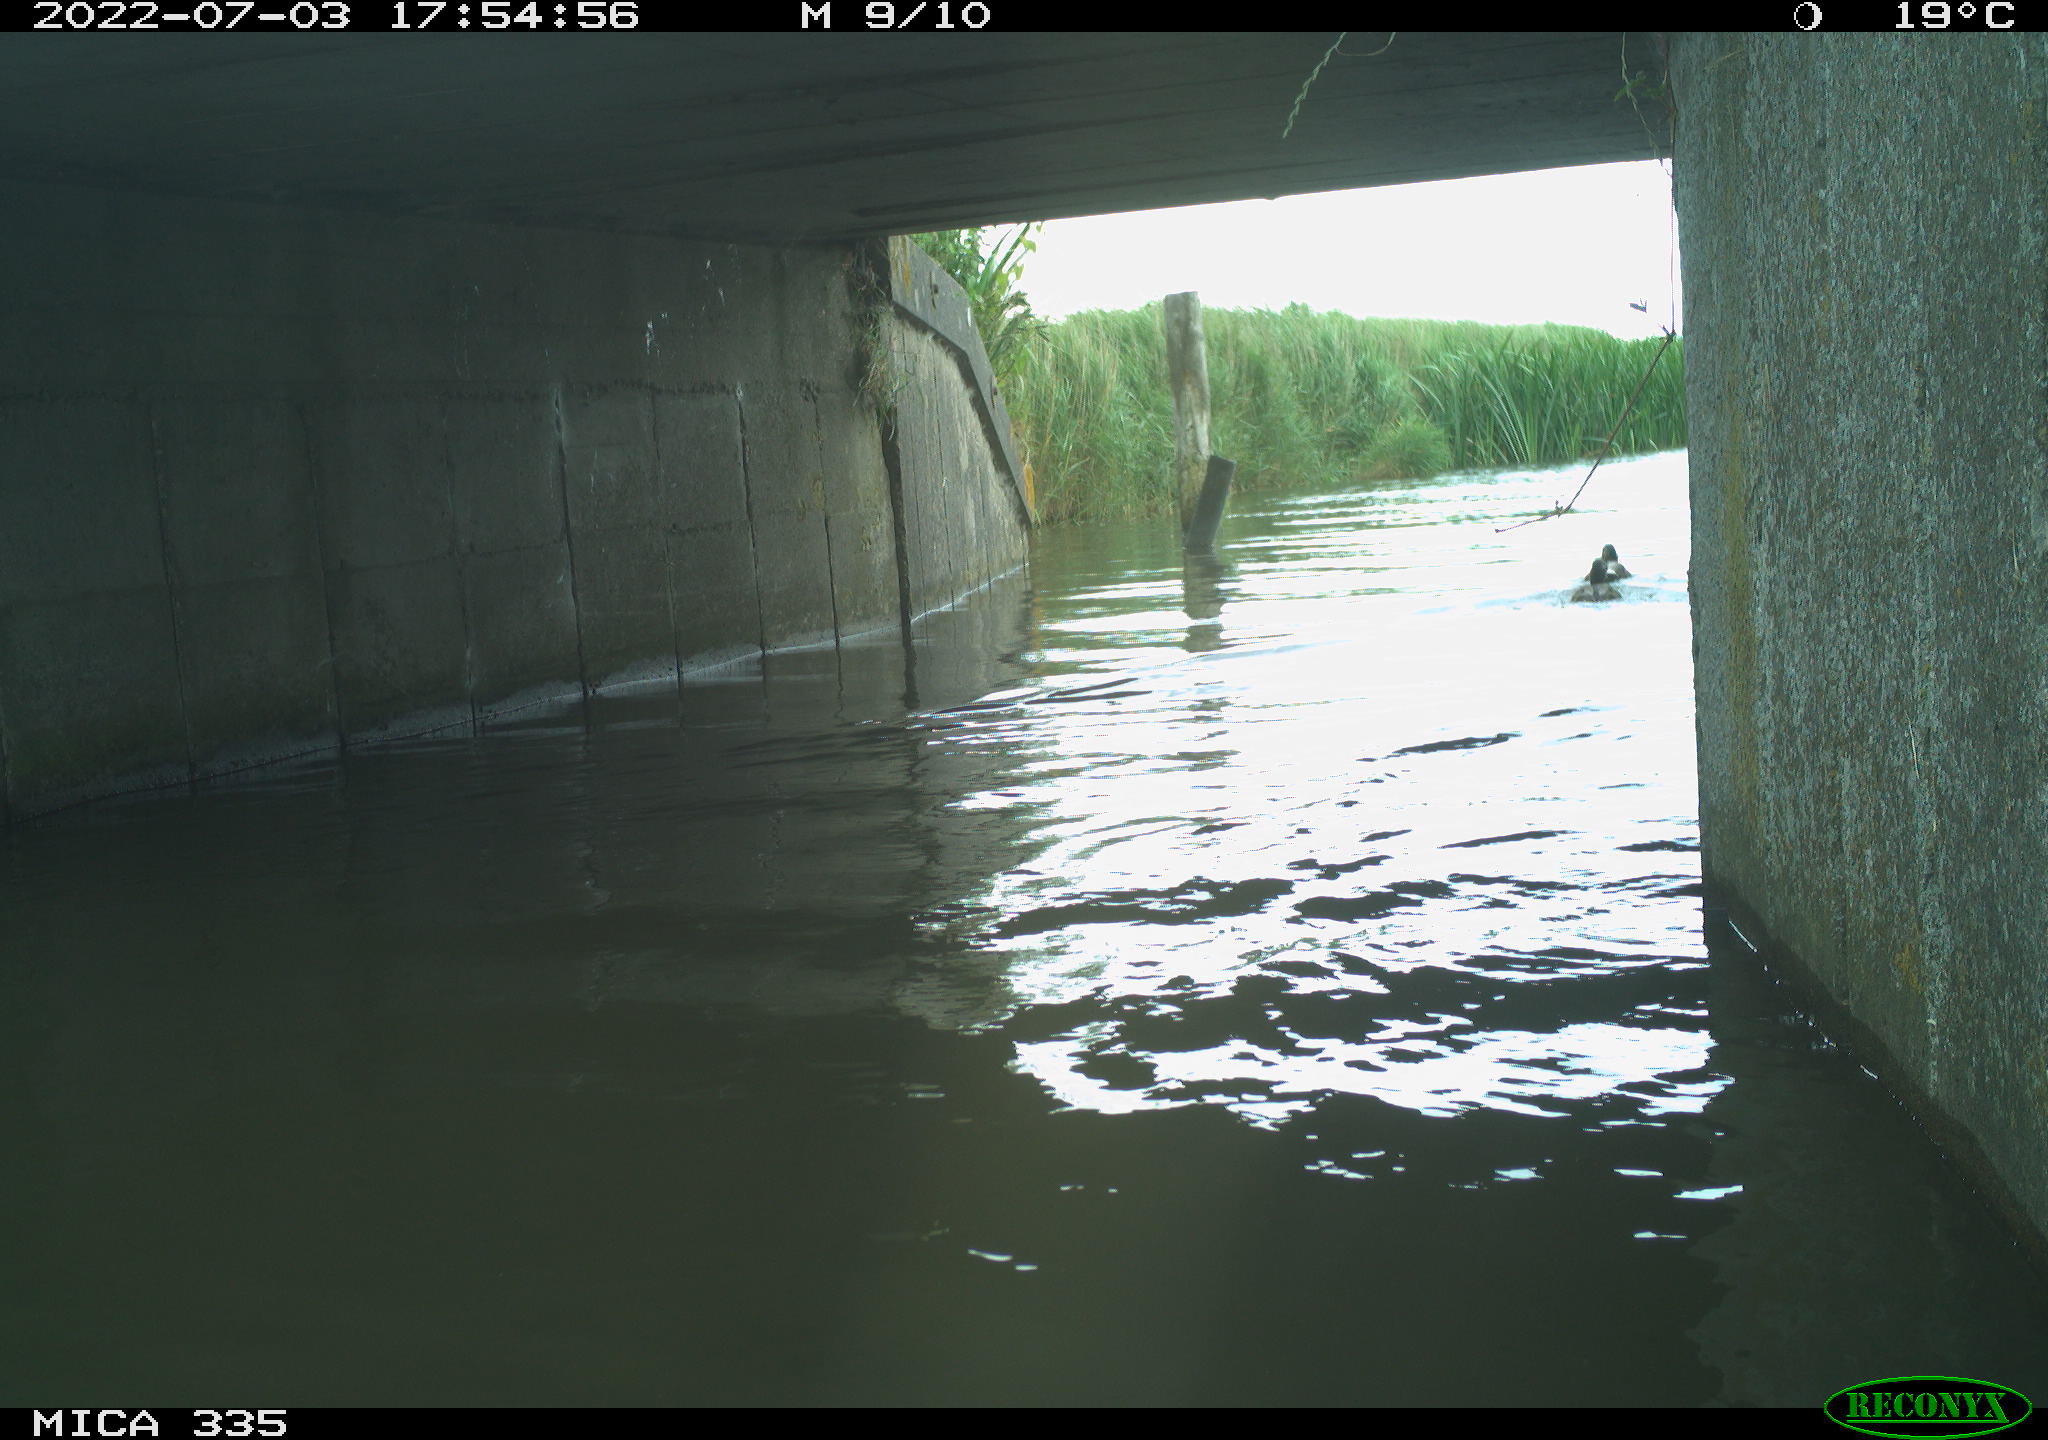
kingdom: Animalia
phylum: Chordata
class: Aves
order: Anseriformes
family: Anatidae
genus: Anas
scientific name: Anas platyrhynchos
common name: Mallard
